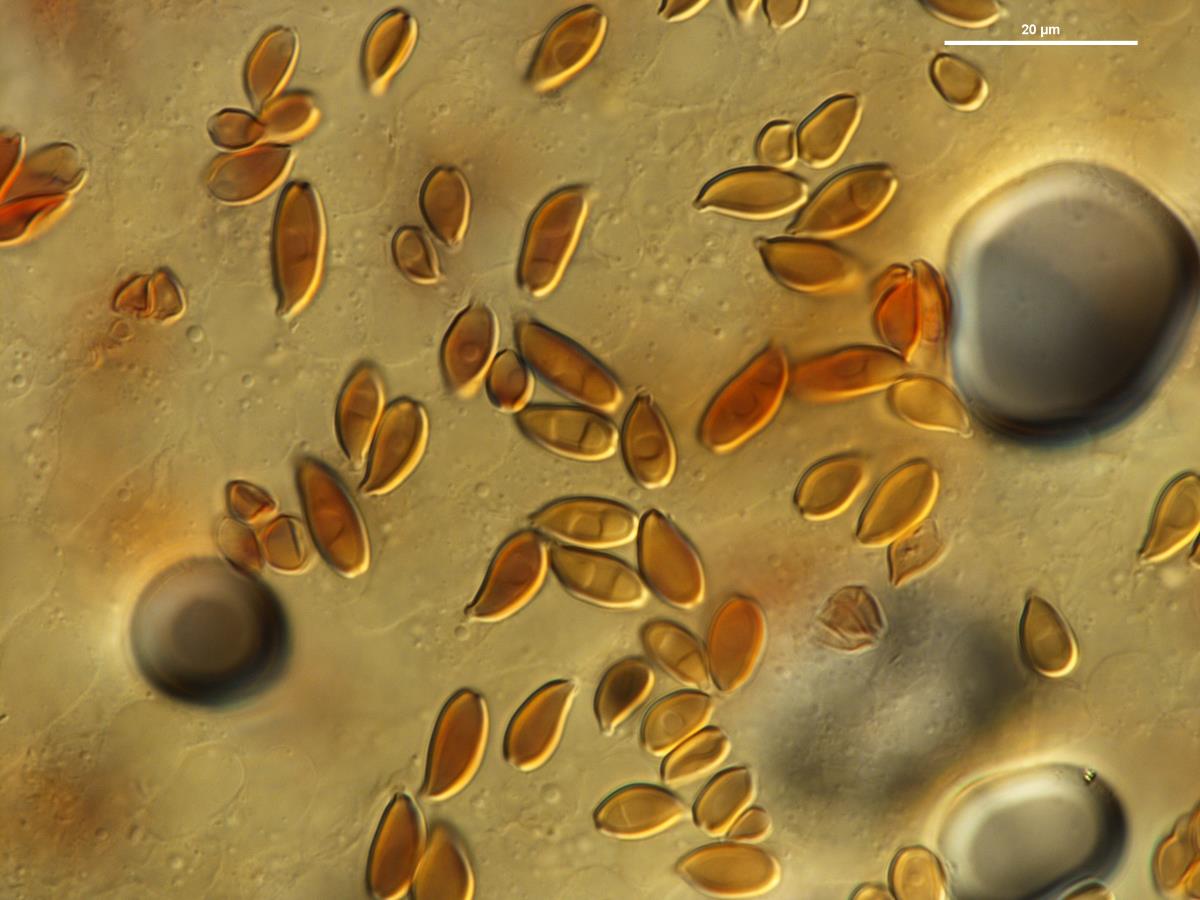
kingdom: Fungi
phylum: Basidiomycota
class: Agaricomycetes
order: Agaricales
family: Agaricaceae
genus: Leucoagaricus
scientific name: Leucoagaricus
